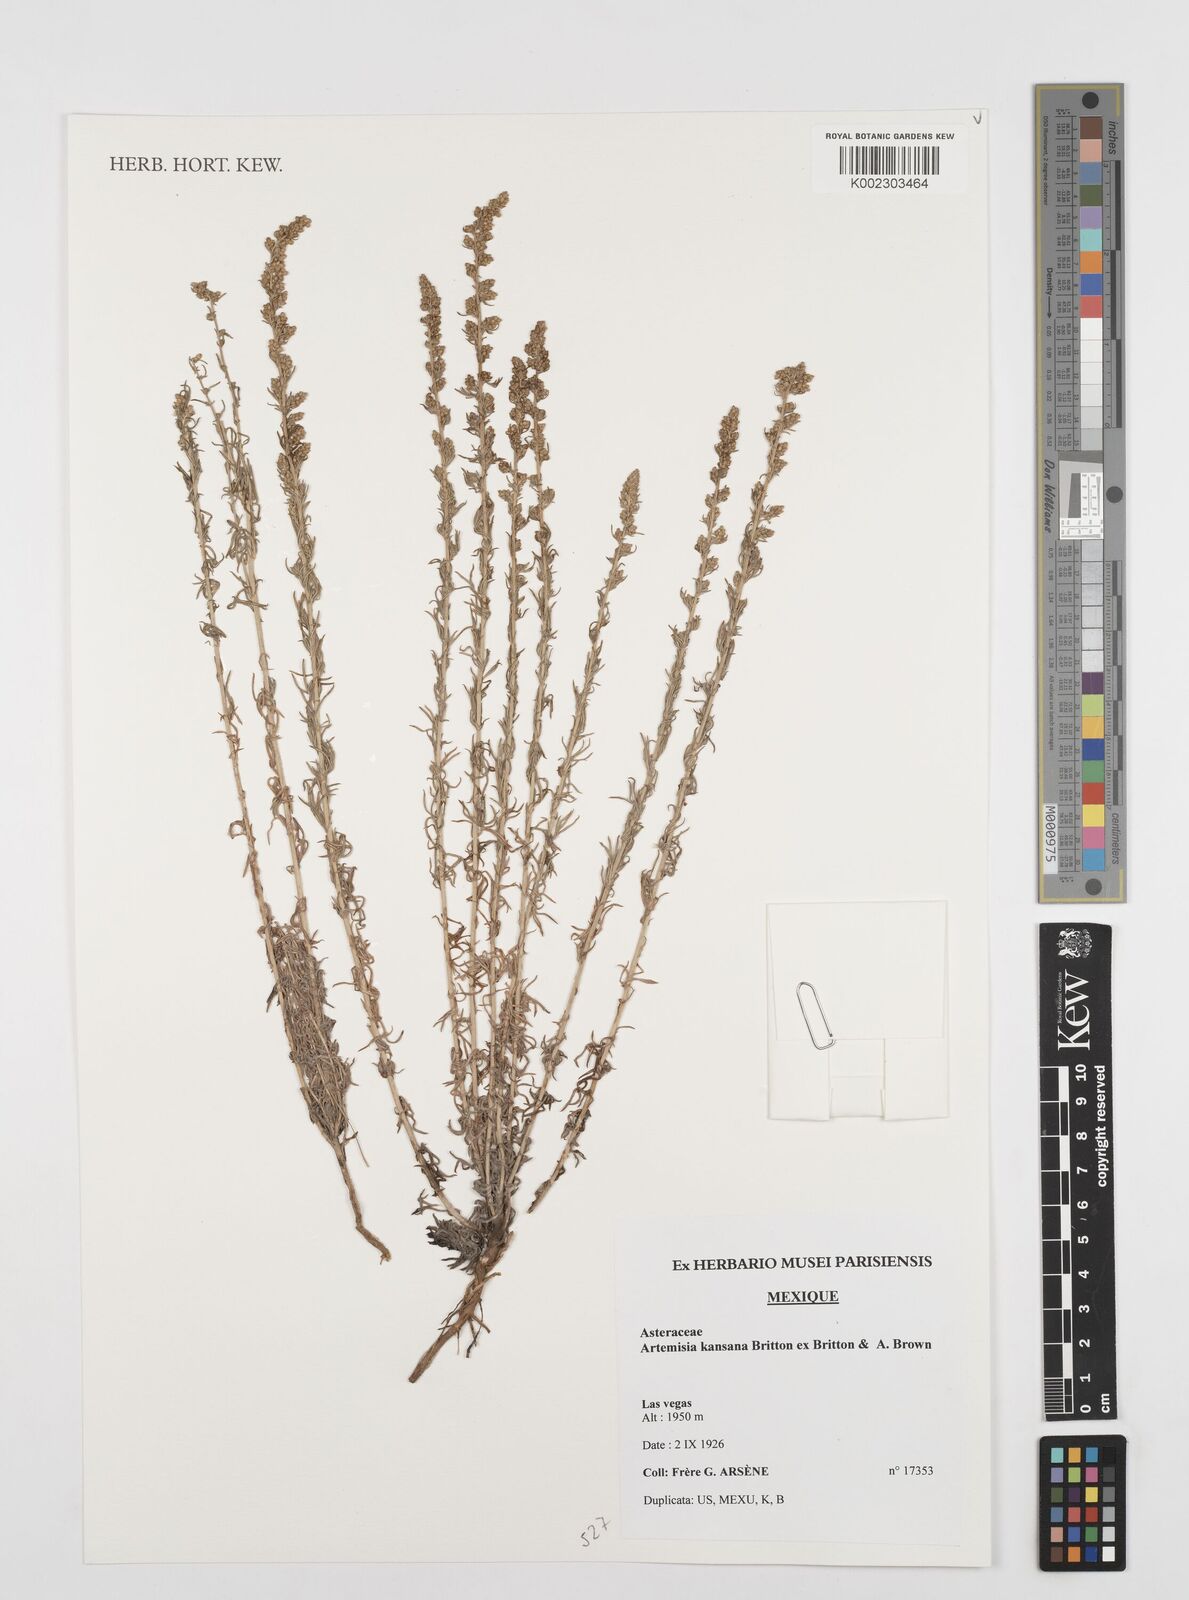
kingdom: Plantae
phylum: Tracheophyta
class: Magnoliopsida
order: Asterales
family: Asteraceae
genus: Artemisia
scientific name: Artemisia carruthii
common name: Carruth wormwood
